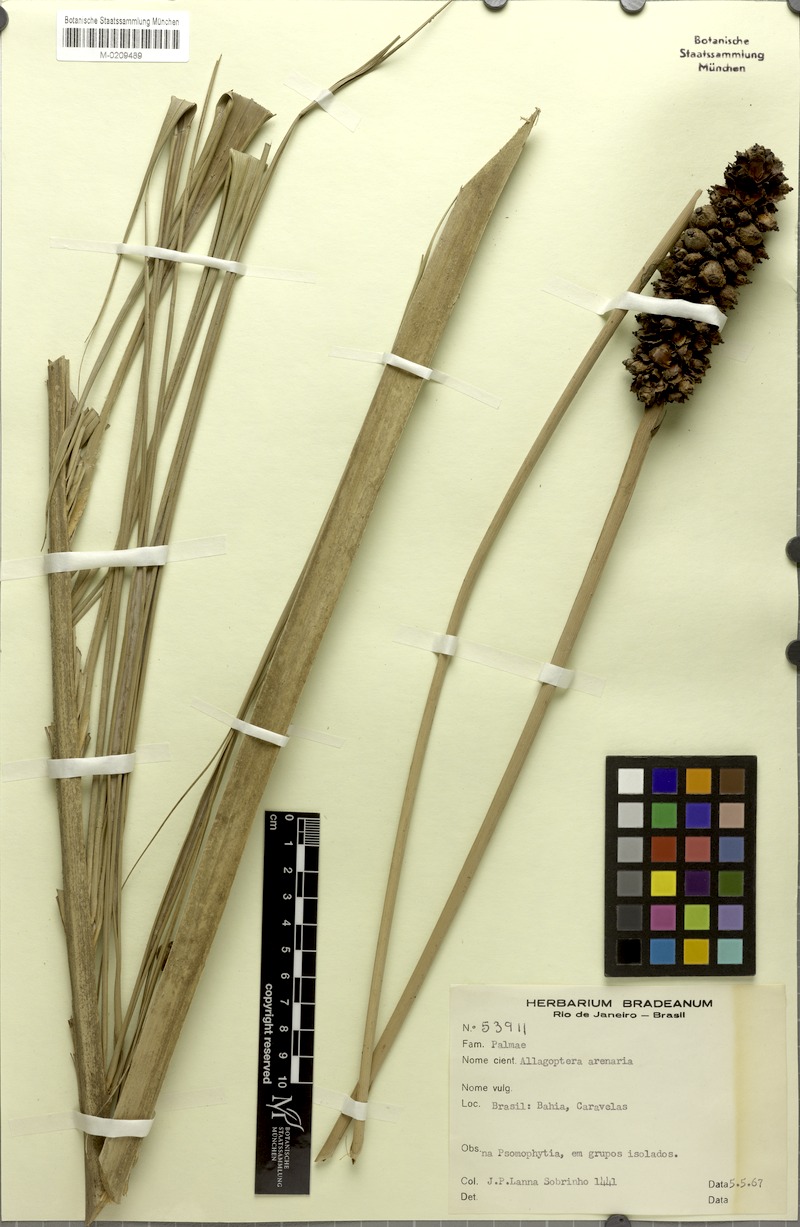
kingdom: Plantae
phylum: Tracheophyta
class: Liliopsida
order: Arecales
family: Arecaceae
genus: Allagoptera
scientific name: Allagoptera arenaria
